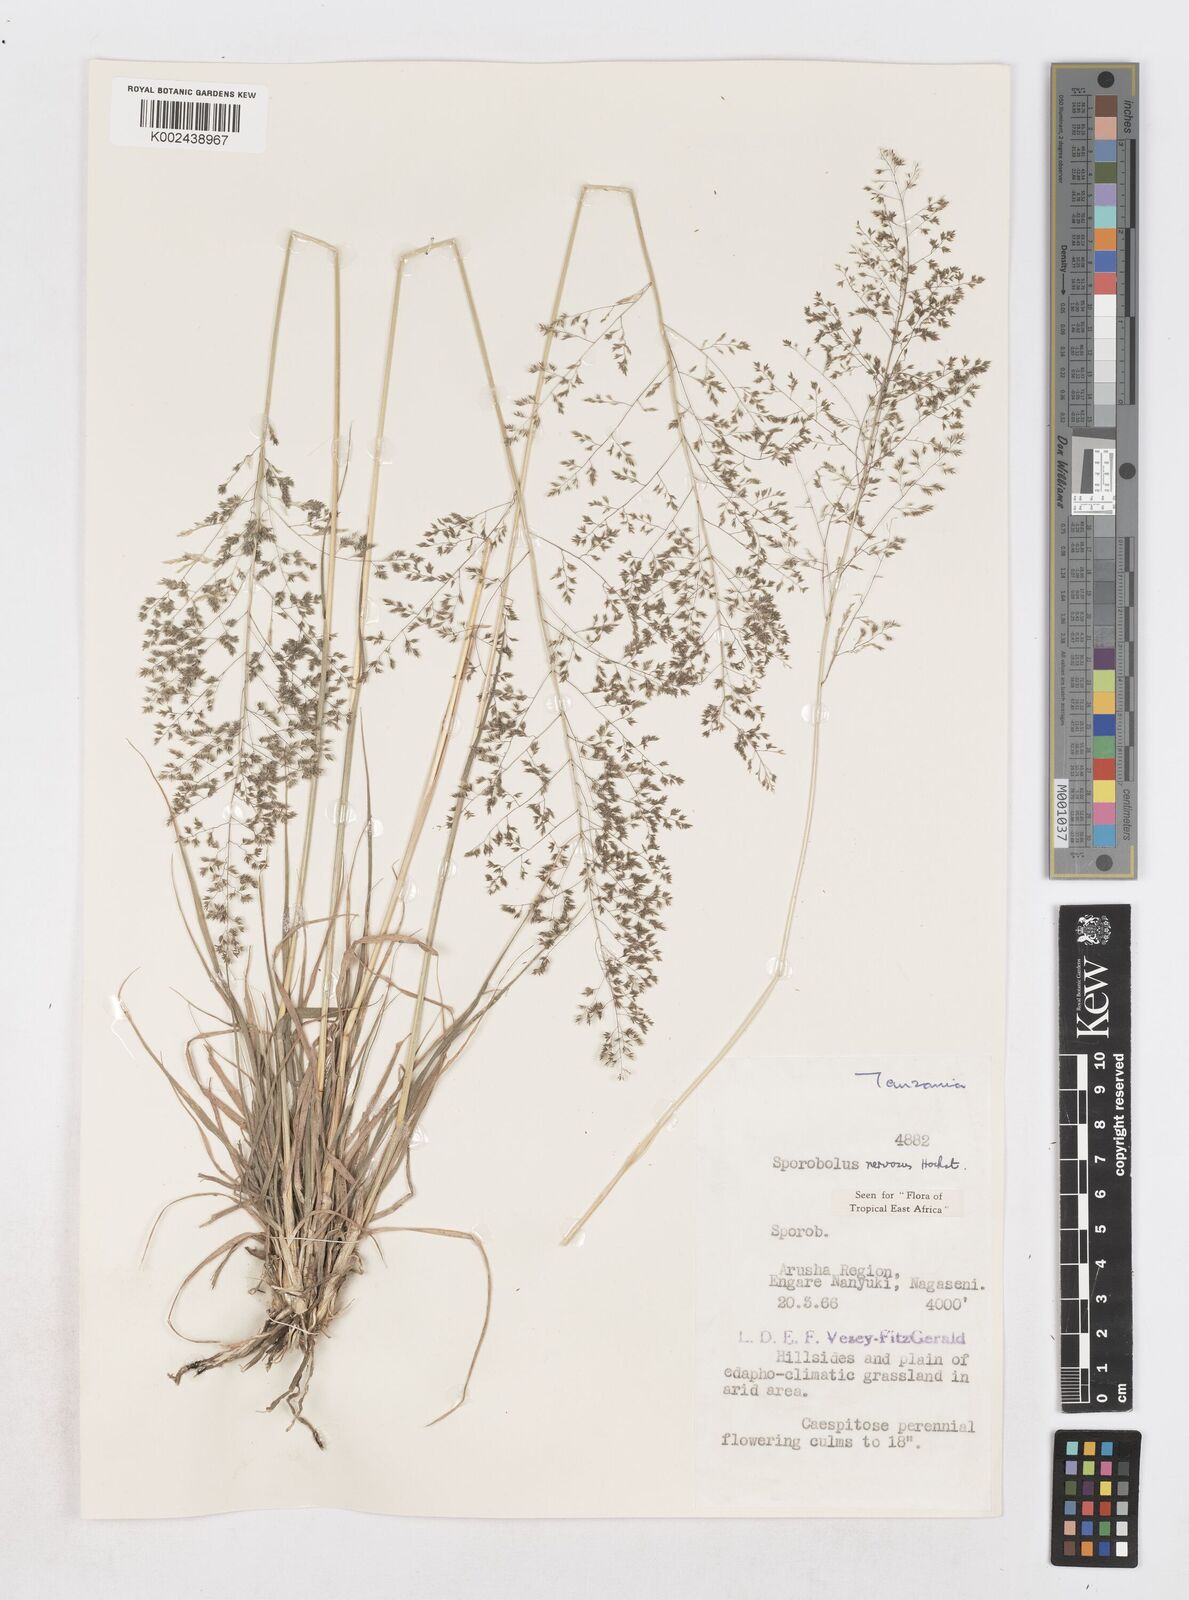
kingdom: Plantae
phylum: Tracheophyta
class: Liliopsida
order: Poales
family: Poaceae
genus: Sporobolus
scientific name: Sporobolus nervosus
